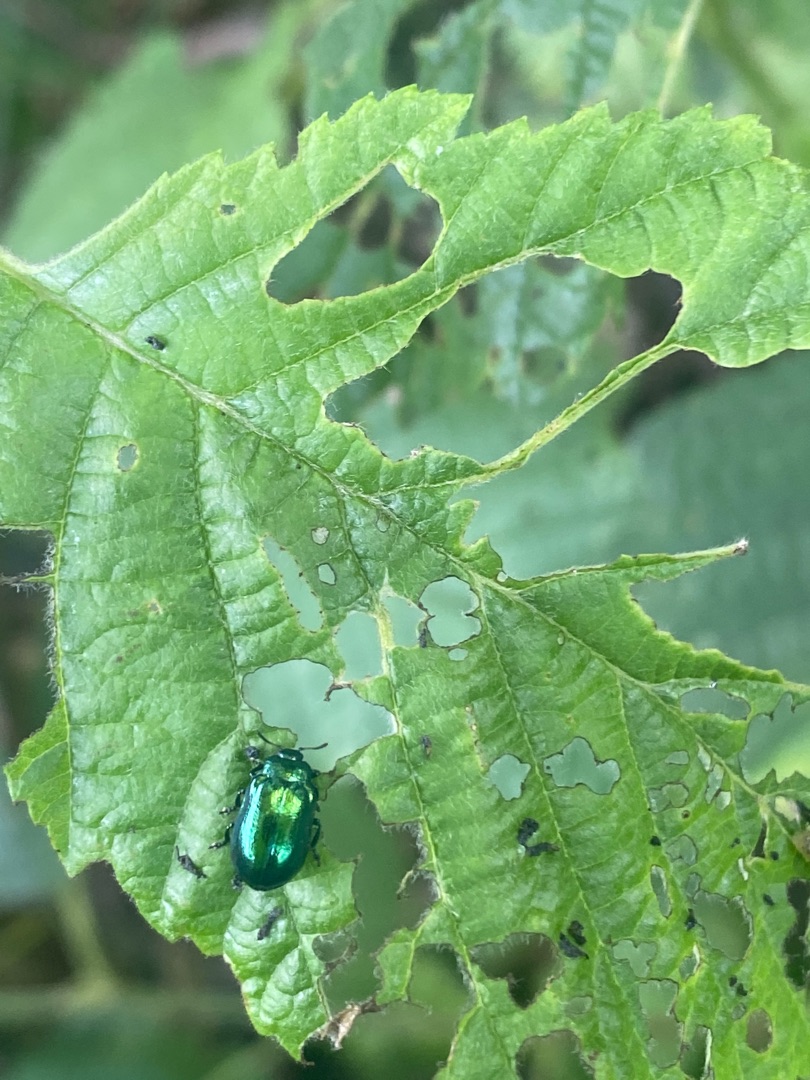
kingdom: Animalia
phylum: Arthropoda
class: Insecta
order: Coleoptera
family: Chrysomelidae
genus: Plagiosterna
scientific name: Plagiosterna aenea
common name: Blågrøn ellebladbille
